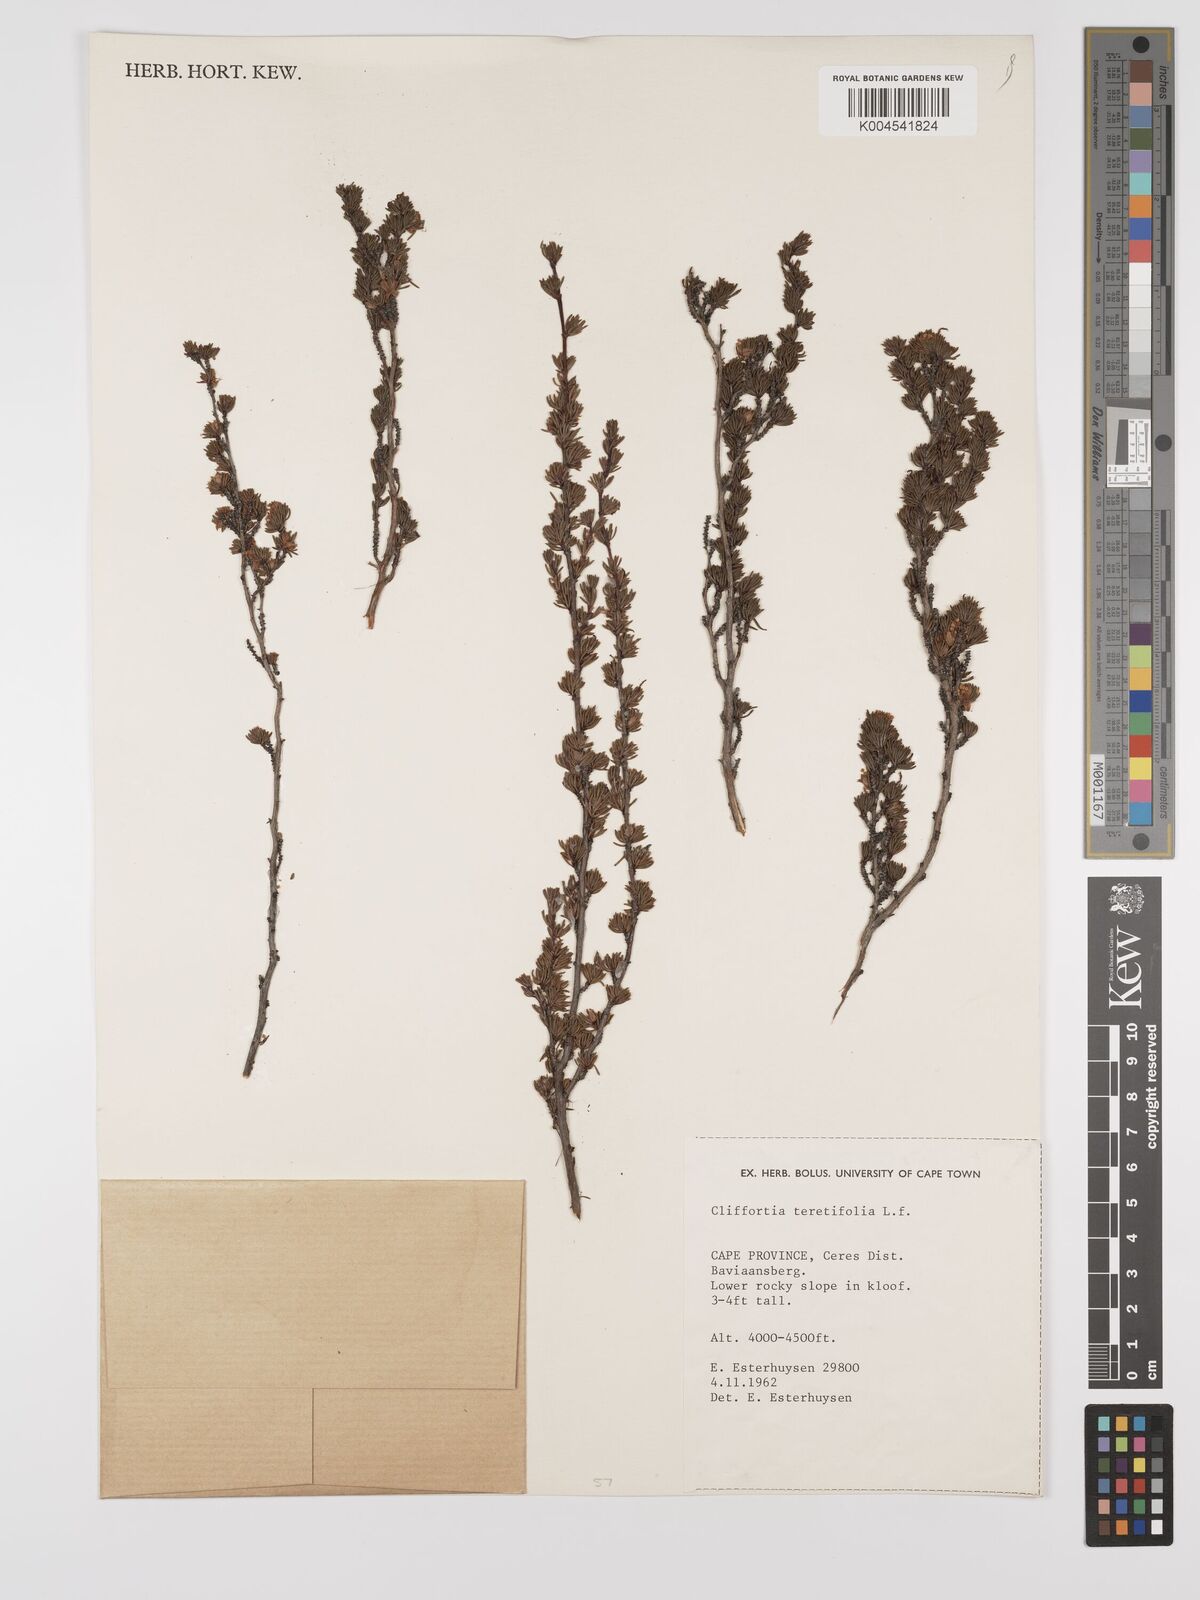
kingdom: Plantae
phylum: Tracheophyta
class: Magnoliopsida
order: Rosales
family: Rosaceae
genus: Cliffortia
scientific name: Cliffortia teretifolia
